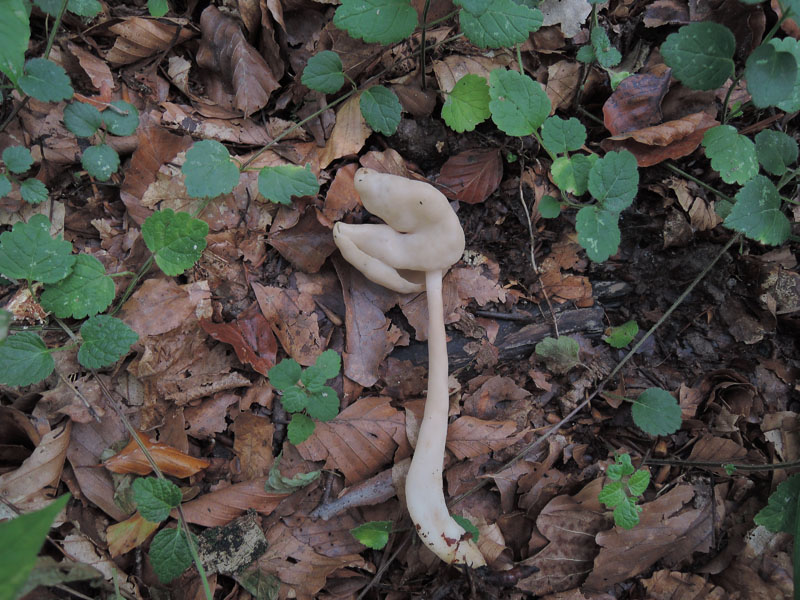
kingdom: Fungi
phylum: Ascomycota
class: Pezizomycetes
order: Pezizales
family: Helvellaceae
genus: Helvella
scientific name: Helvella elastica
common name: elastik-foldhat
